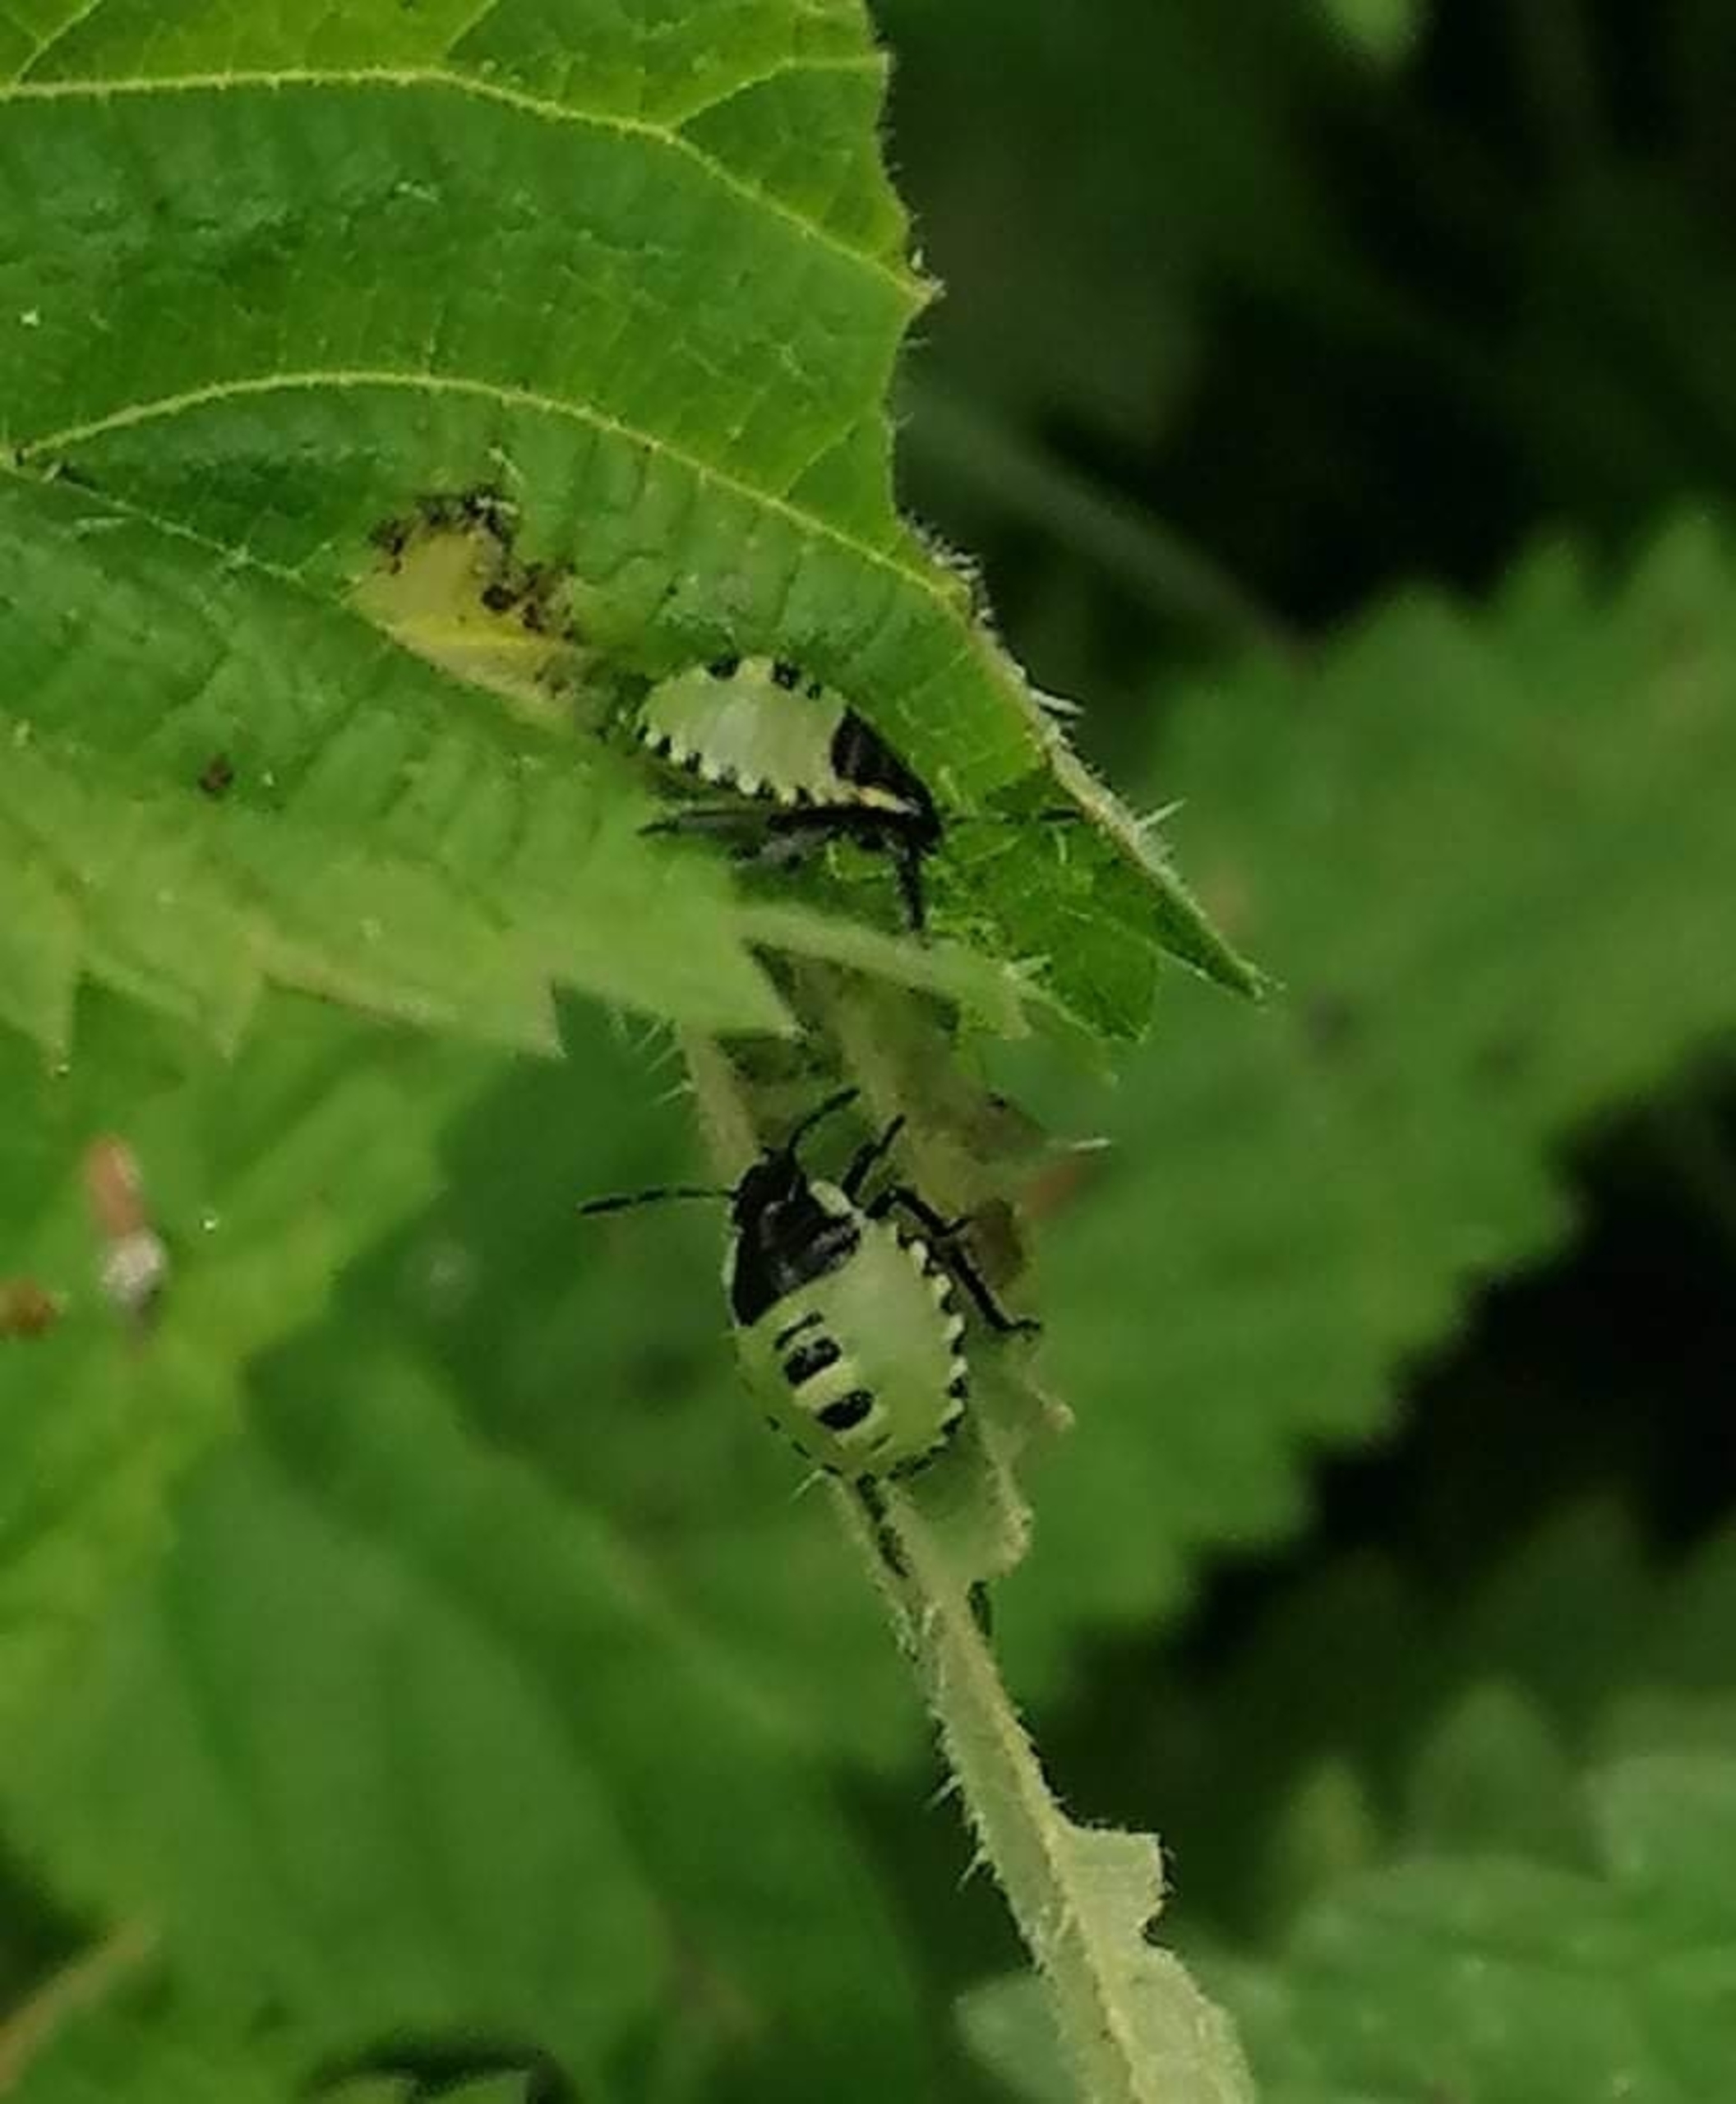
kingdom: Animalia
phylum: Arthropoda
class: Insecta
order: Hemiptera
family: Pentatomidae
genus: Palomena
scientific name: Palomena prasina
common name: Grøn bredtæge
